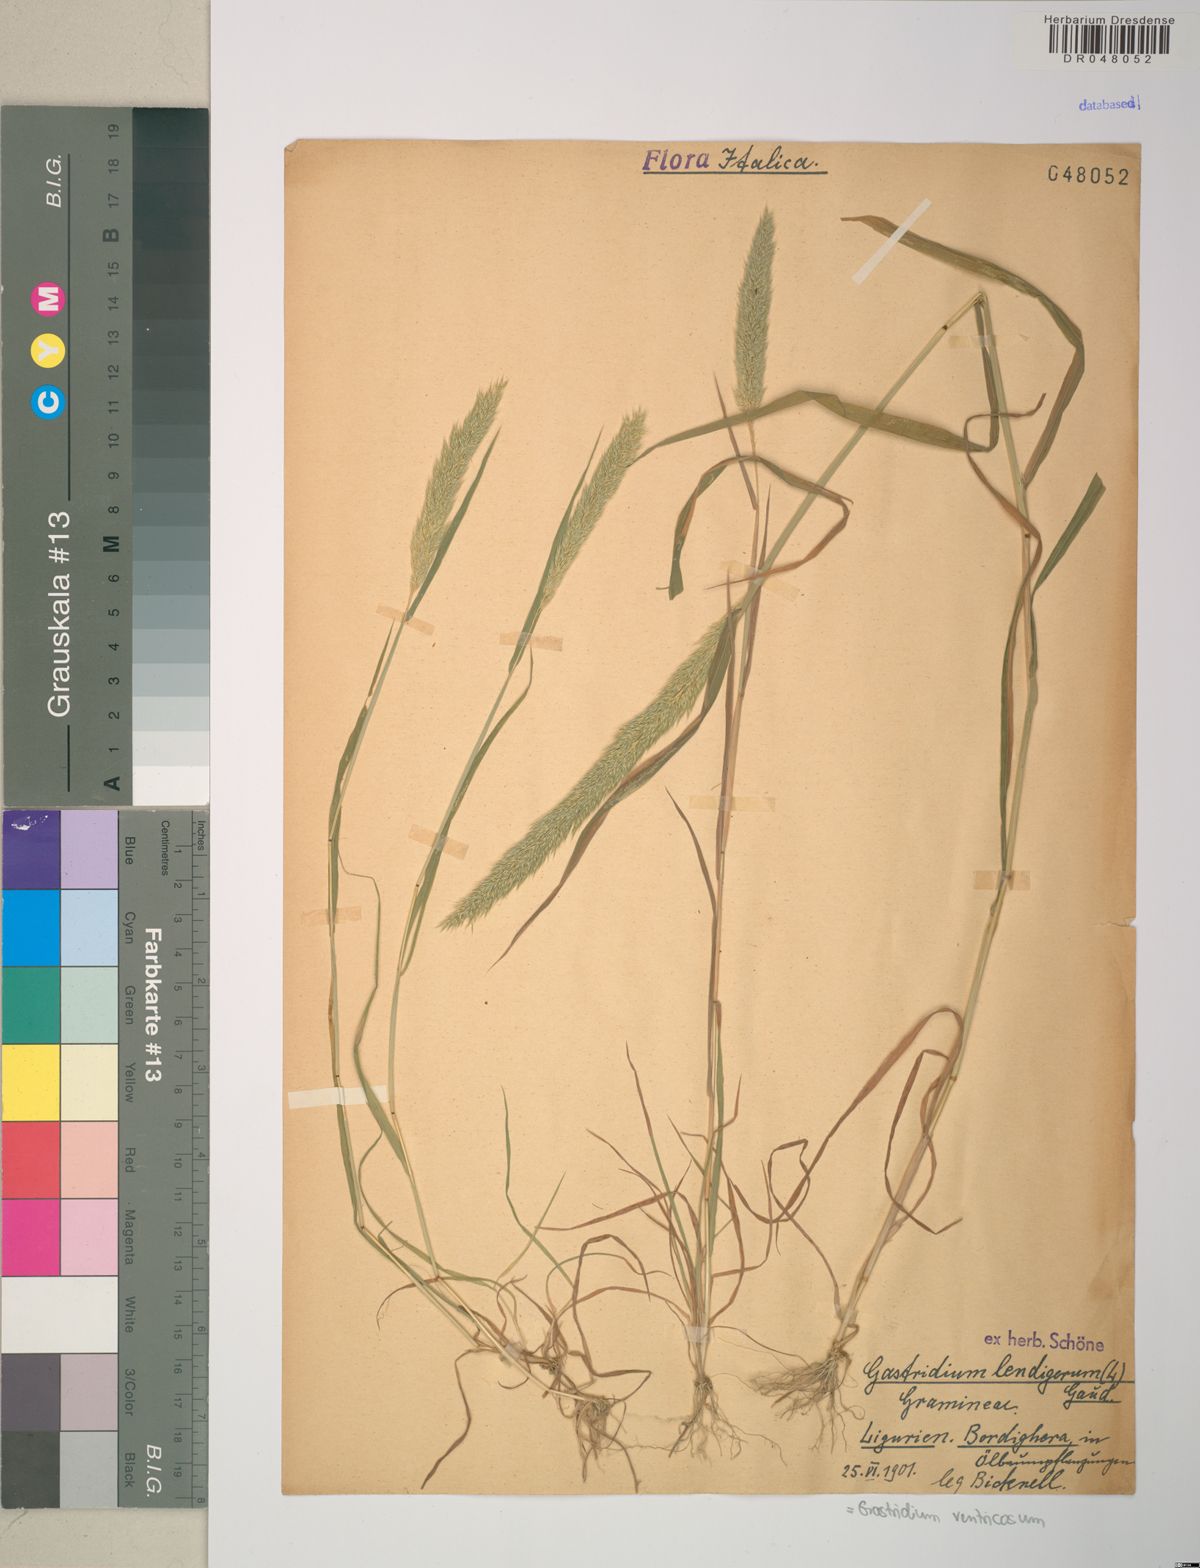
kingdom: Plantae
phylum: Tracheophyta
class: Liliopsida
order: Poales
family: Poaceae
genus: Gastridium
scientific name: Gastridium ventricosum
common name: Nit-grass
